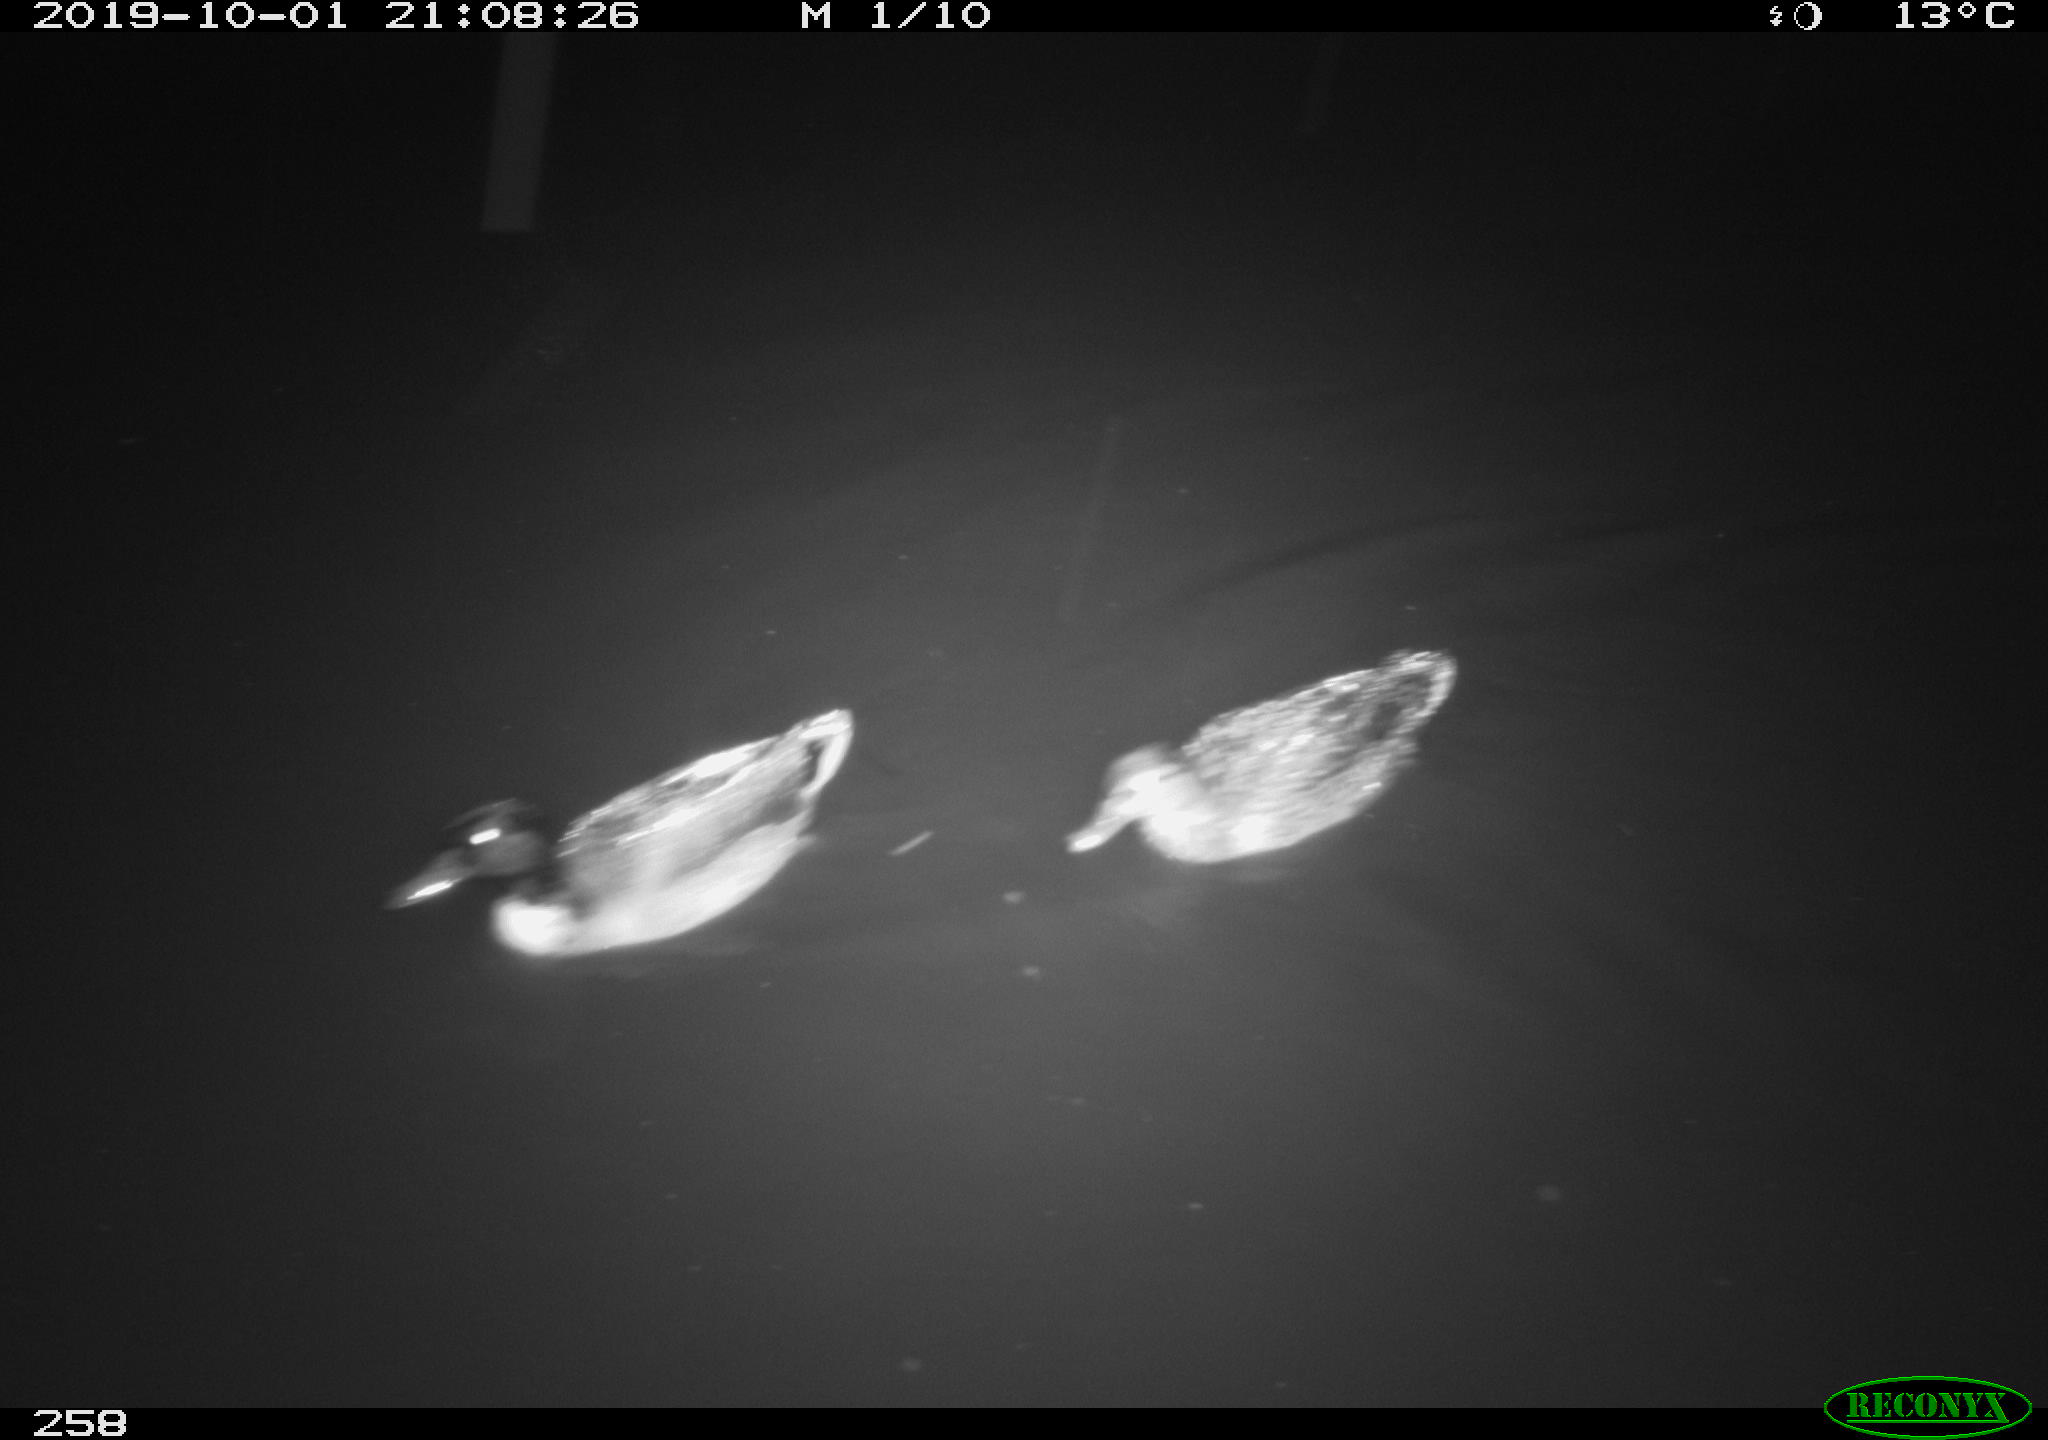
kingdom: Animalia
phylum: Chordata
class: Aves
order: Anseriformes
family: Anatidae
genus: Anas
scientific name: Anas platyrhynchos
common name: Mallard
